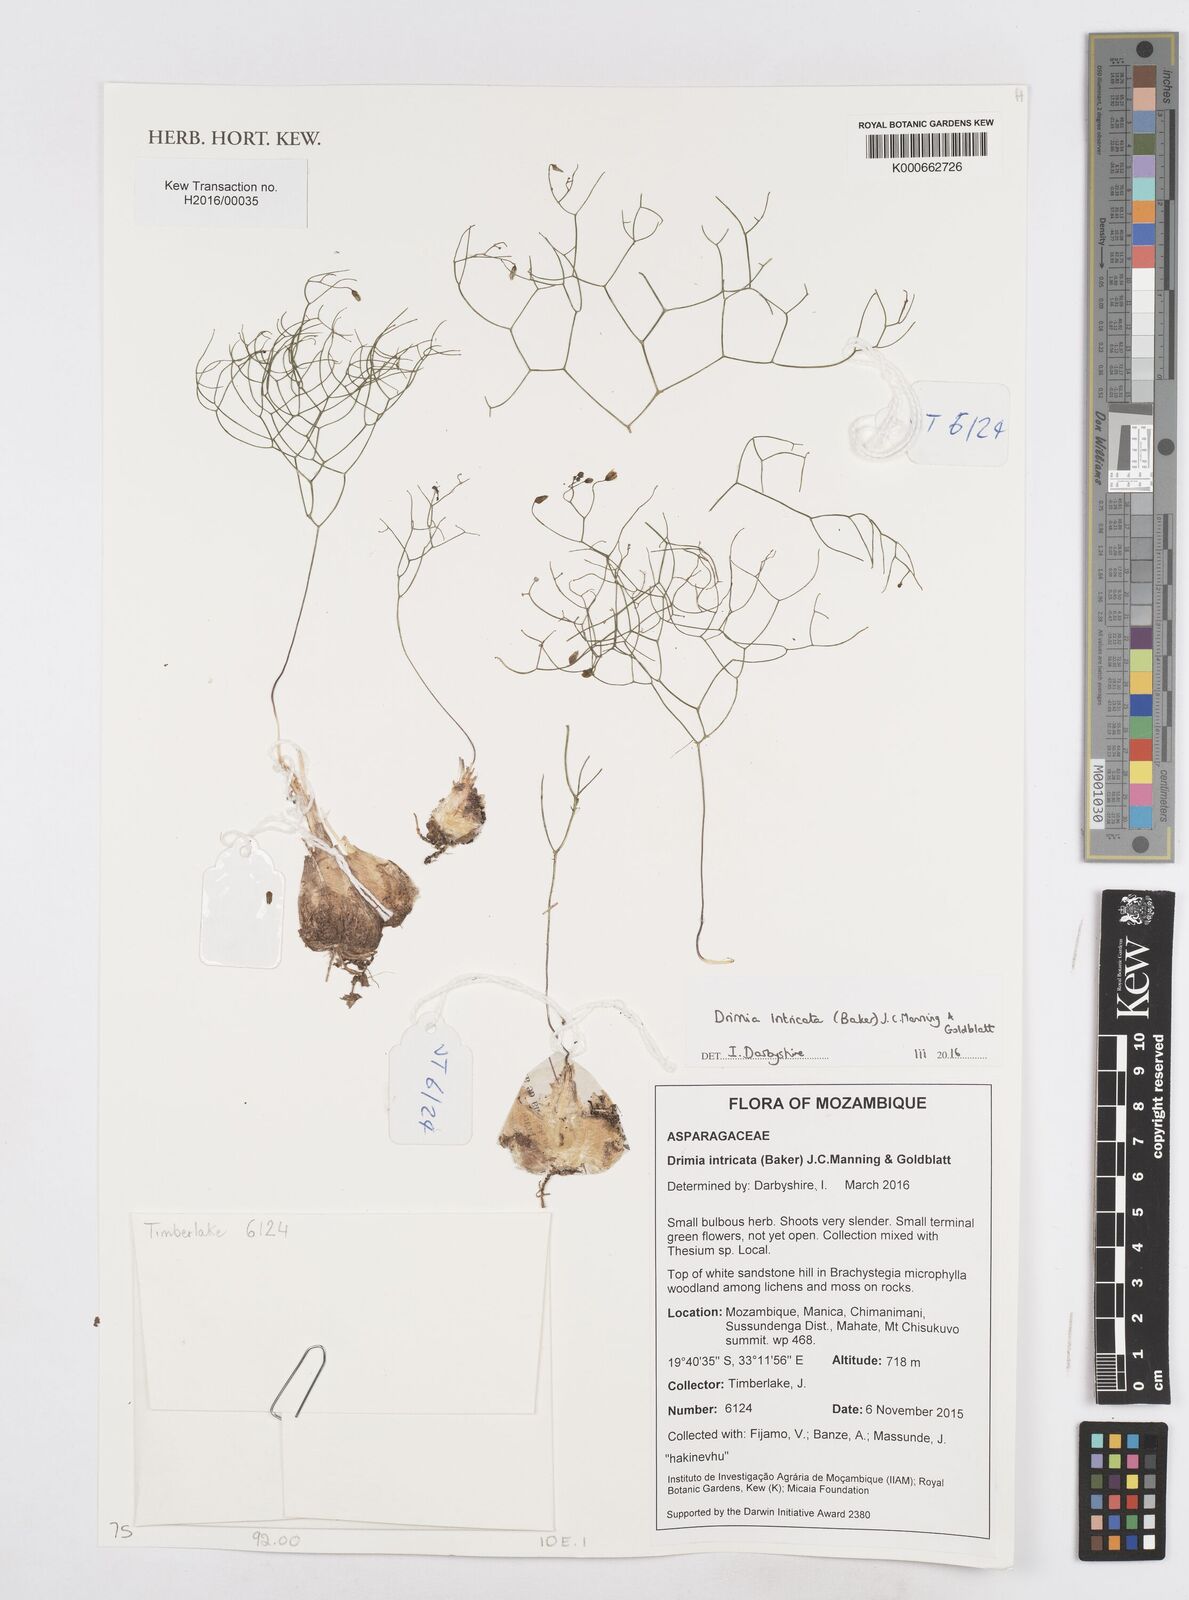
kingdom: Plantae
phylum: Tracheophyta
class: Liliopsida
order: Asparagales
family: Asparagaceae
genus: Drimia
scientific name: Drimia intricata
